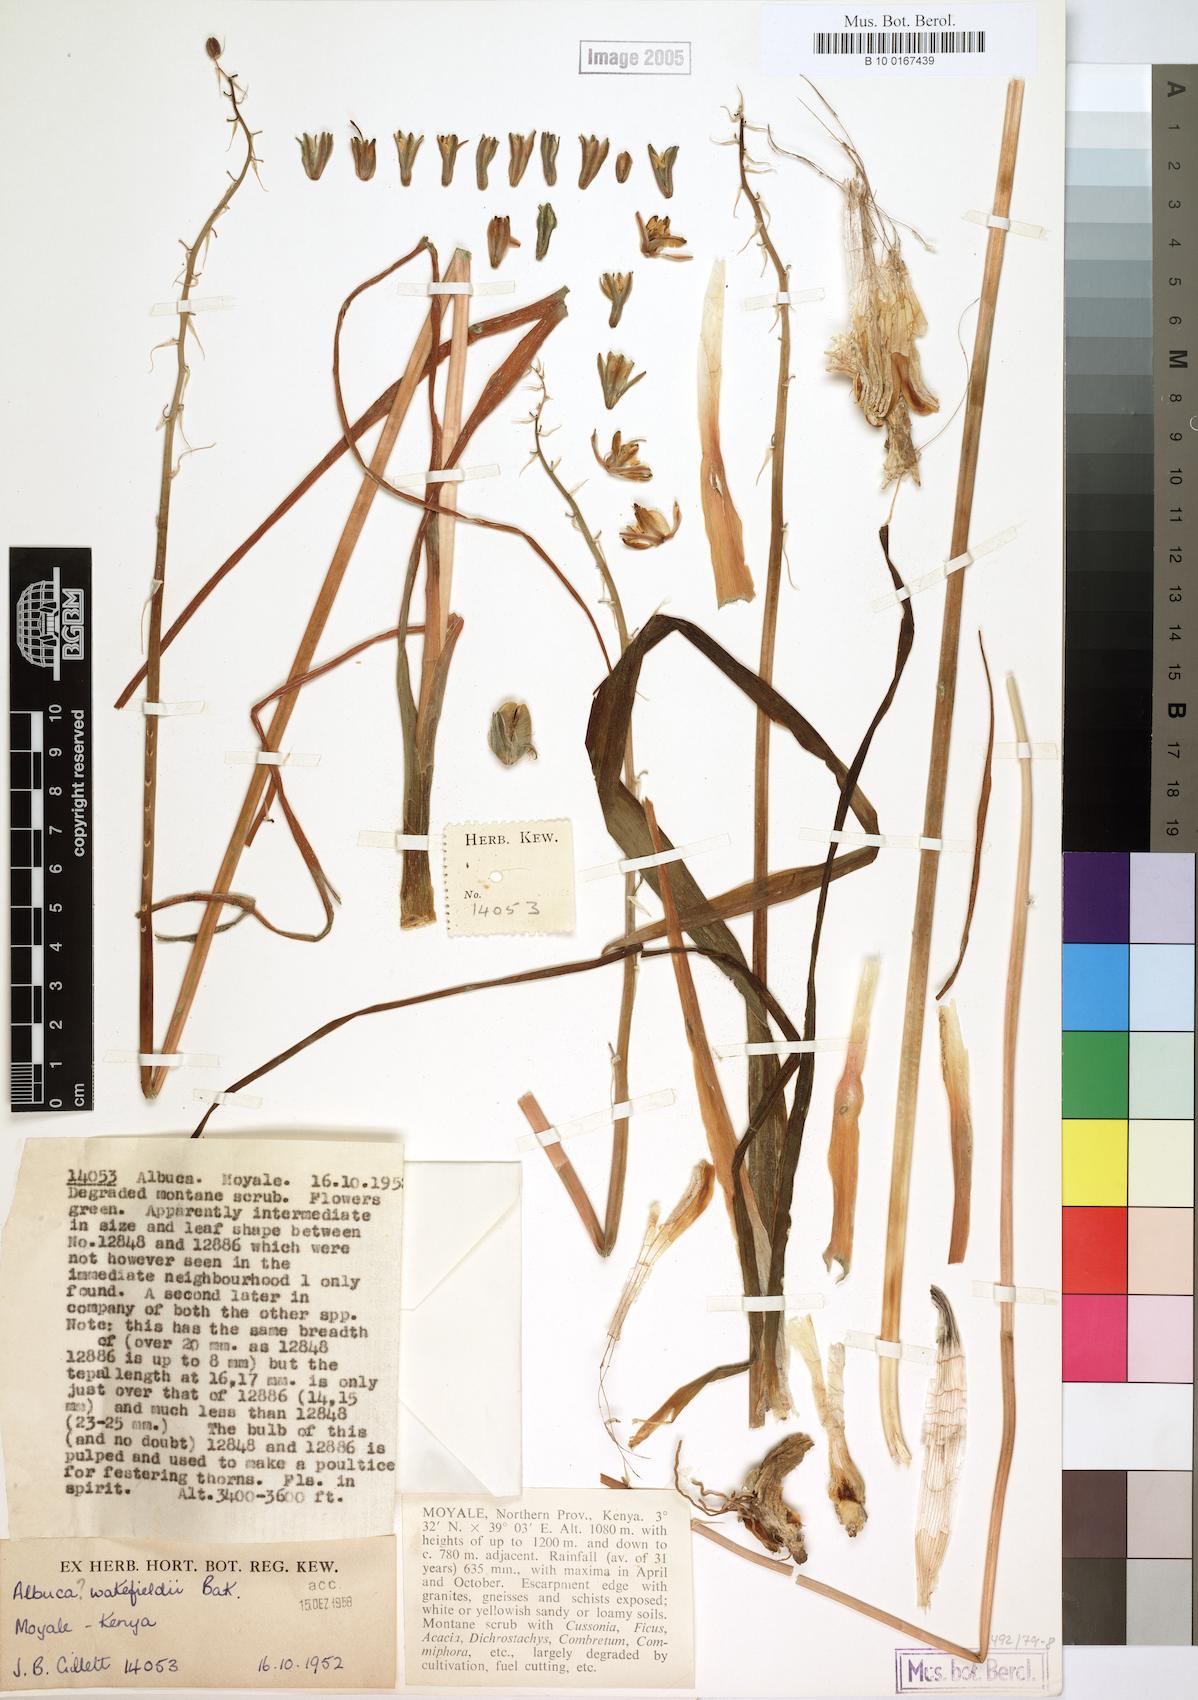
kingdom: Plantae
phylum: Tracheophyta
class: Liliopsida
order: Asparagales
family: Asparagaceae
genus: Albuca
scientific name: Albuca abyssinica
